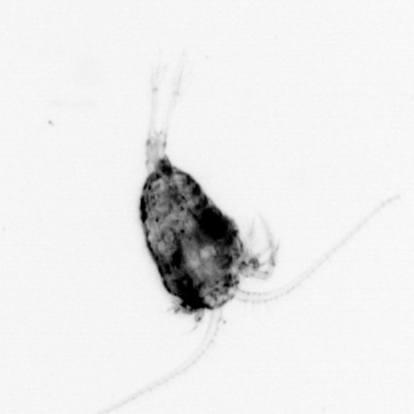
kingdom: Animalia
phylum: Arthropoda
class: Copepoda
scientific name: Copepoda
